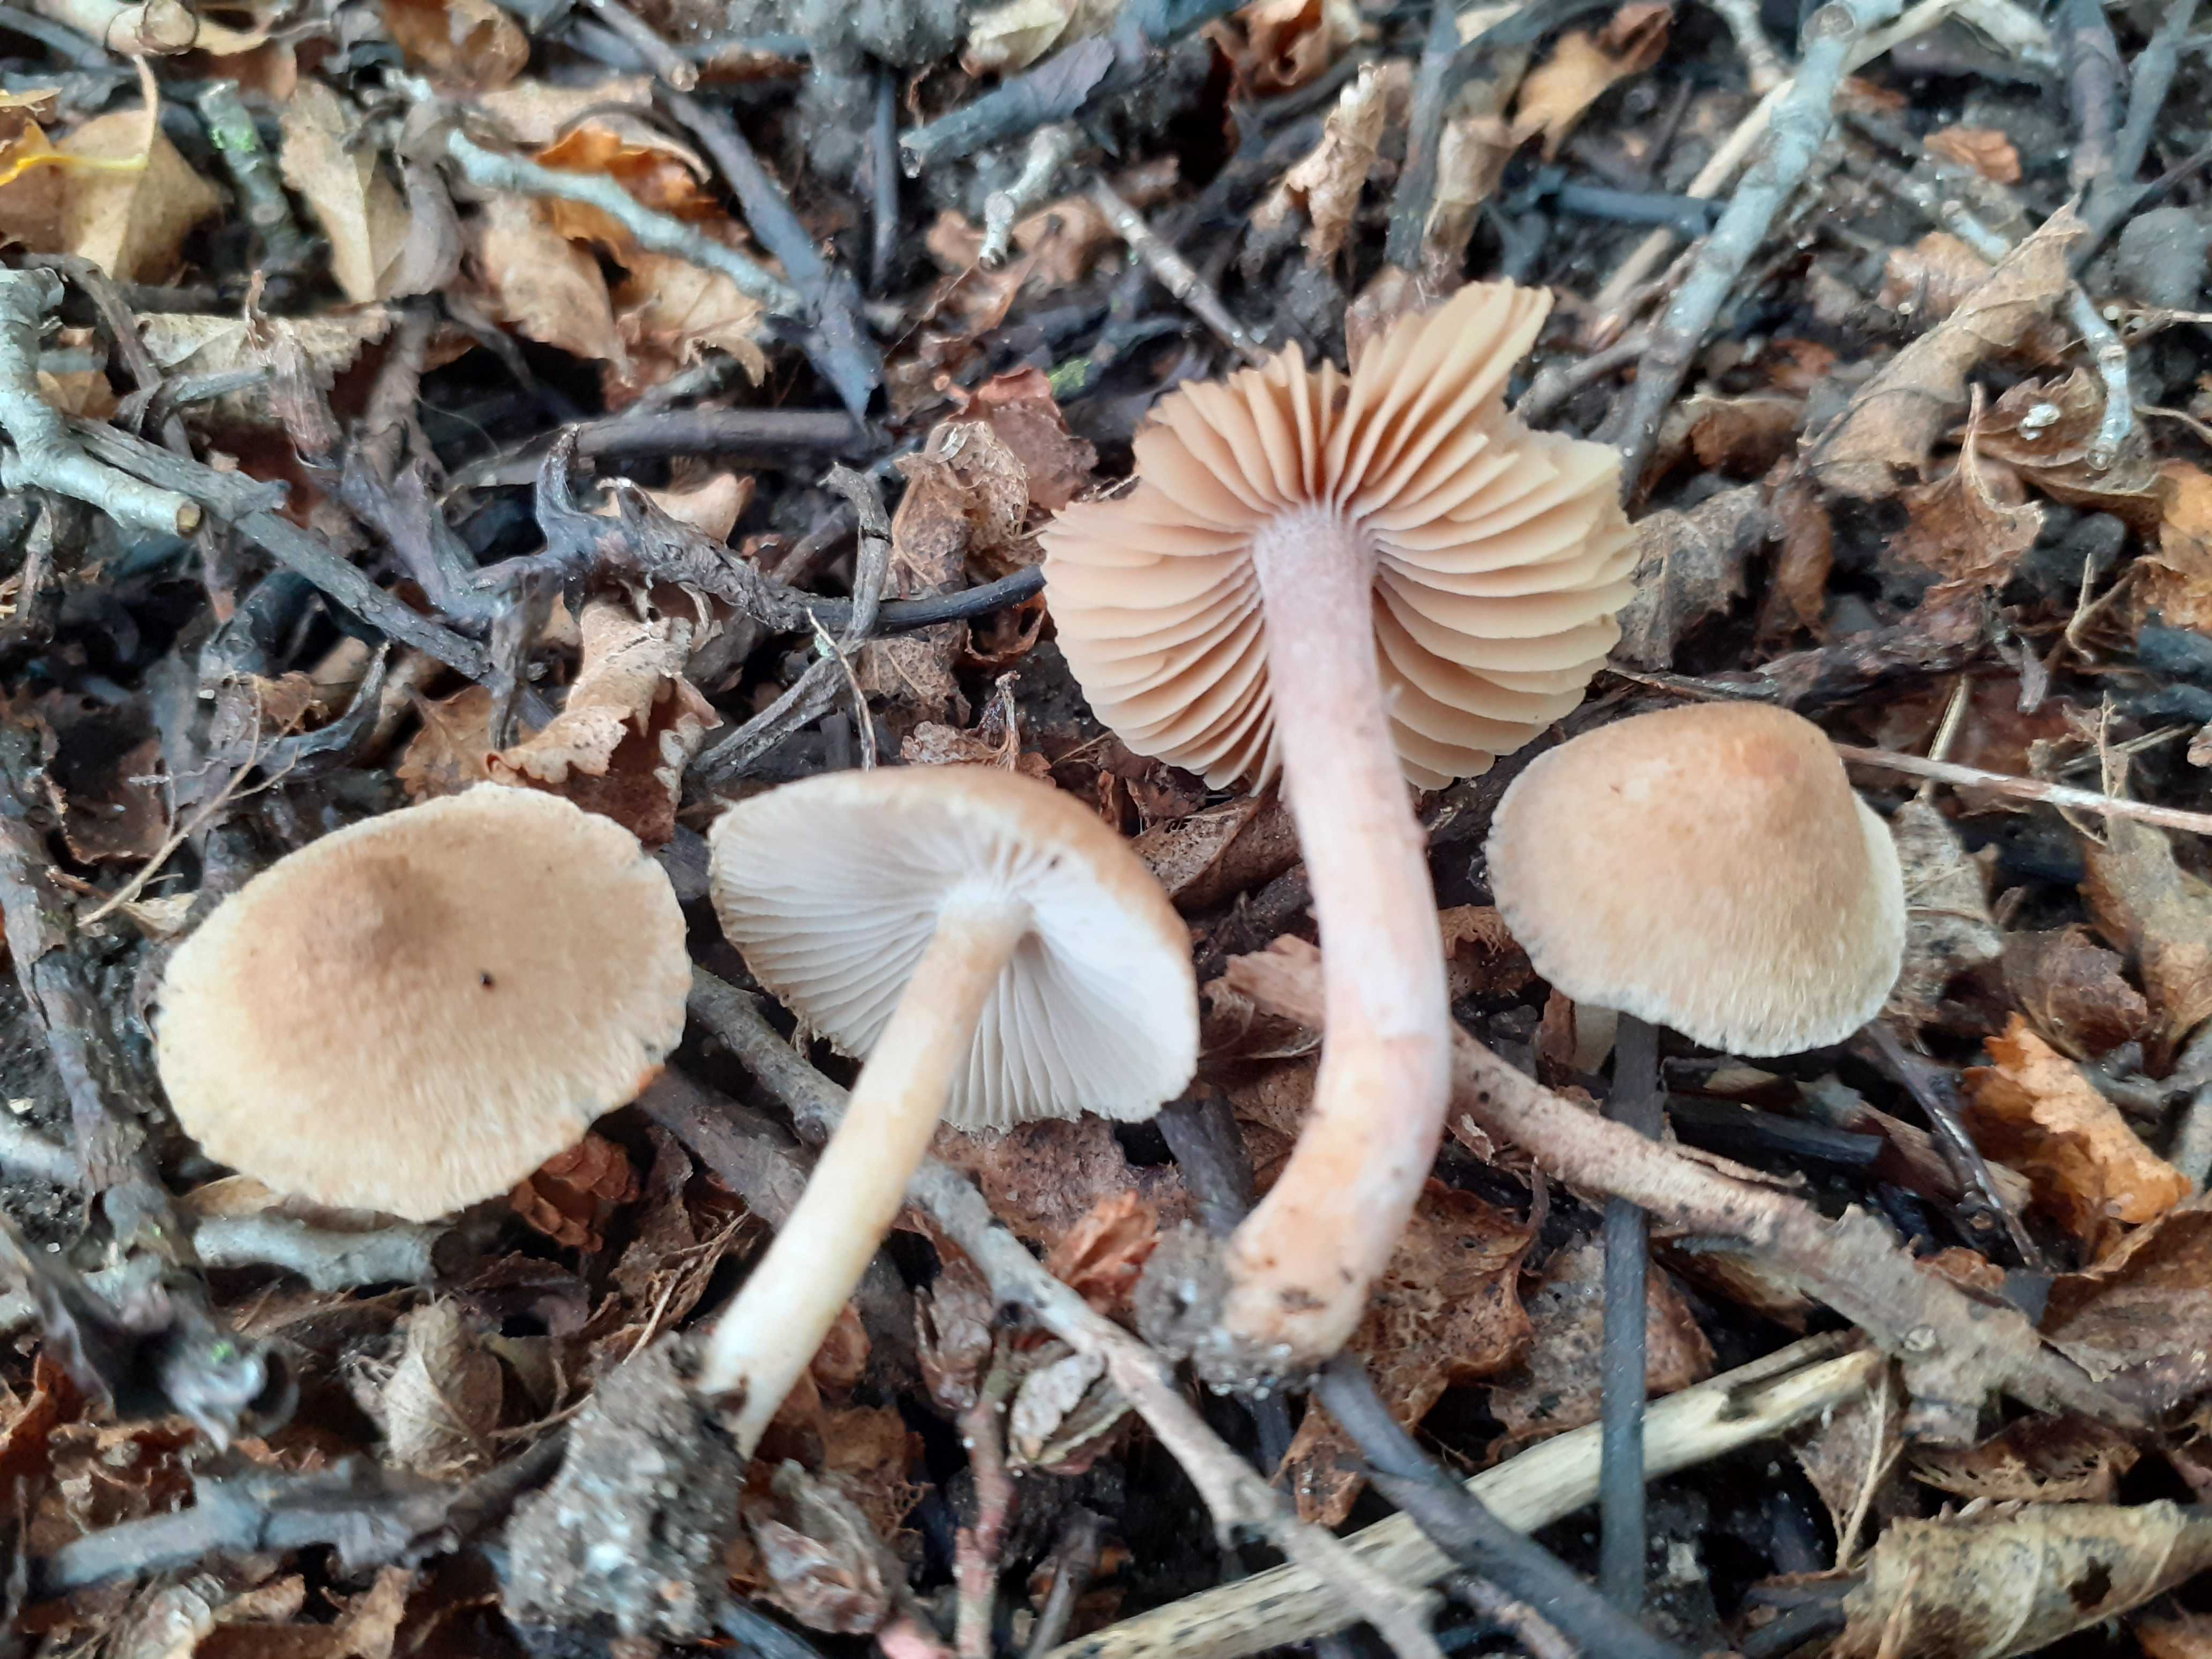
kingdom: Fungi
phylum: Basidiomycota
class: Agaricomycetes
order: Agaricales
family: Inocybaceae
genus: Inocybe
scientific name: Inocybe tigrina
